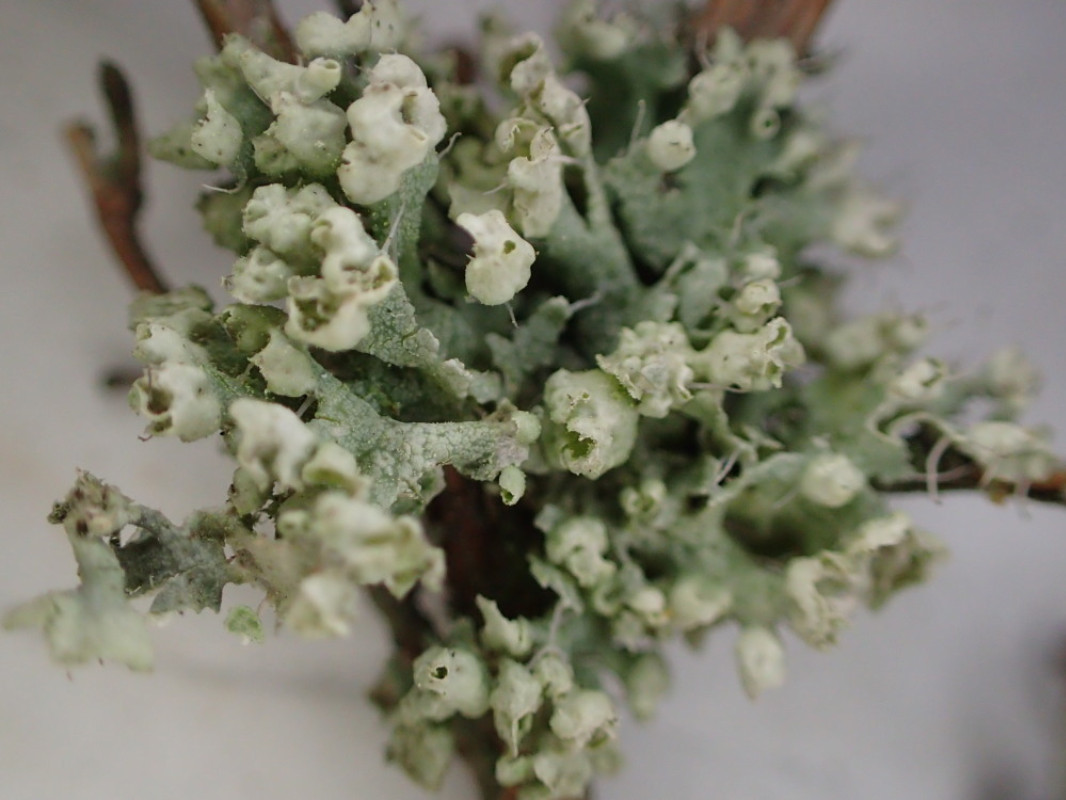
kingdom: Fungi
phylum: Ascomycota
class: Lecanoromycetes
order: Caliciales
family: Physciaceae
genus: Physcia
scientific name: Physcia adscendens
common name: hætte-rosetlav
